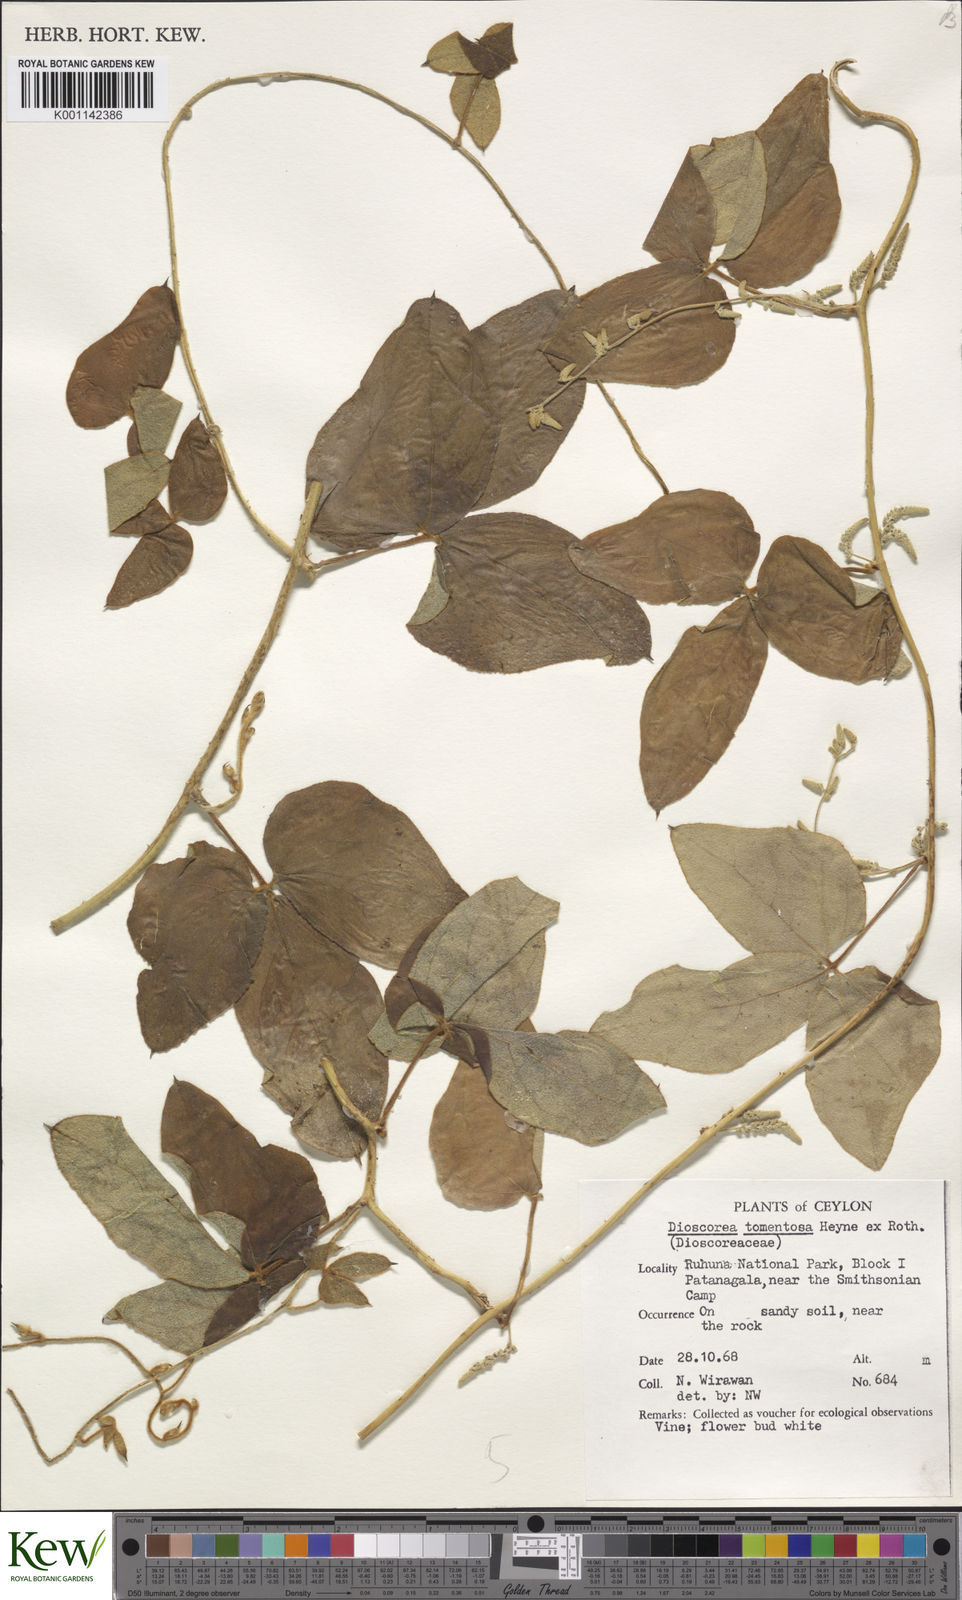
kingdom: Plantae
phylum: Tracheophyta
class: Liliopsida
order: Dioscoreales
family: Dioscoreaceae
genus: Dioscorea
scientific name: Dioscorea
